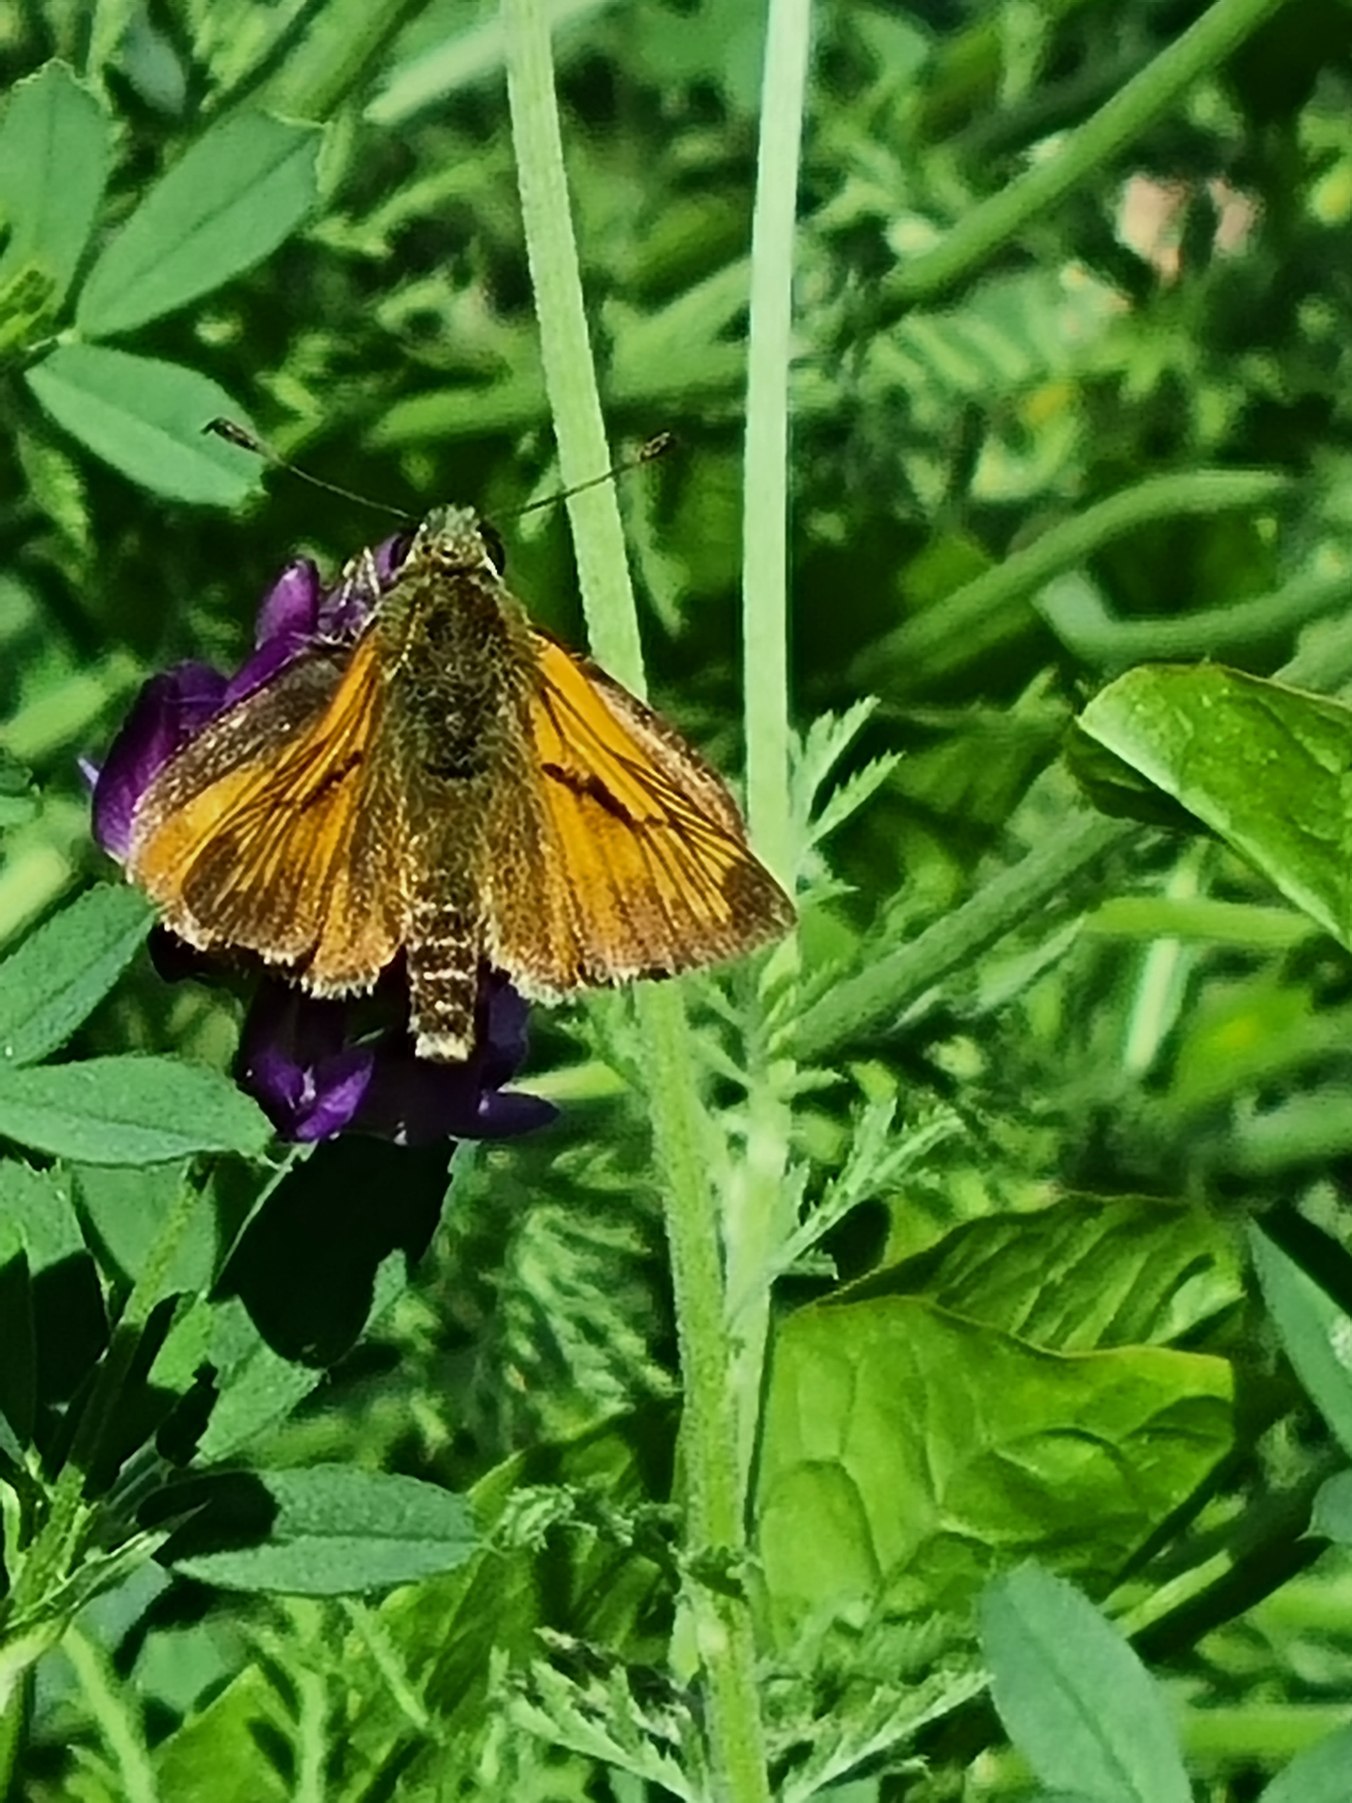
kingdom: Animalia
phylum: Arthropoda
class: Insecta
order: Lepidoptera
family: Hesperiidae
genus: Ochlodes
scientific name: Ochlodes venata
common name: Stor bredpande
